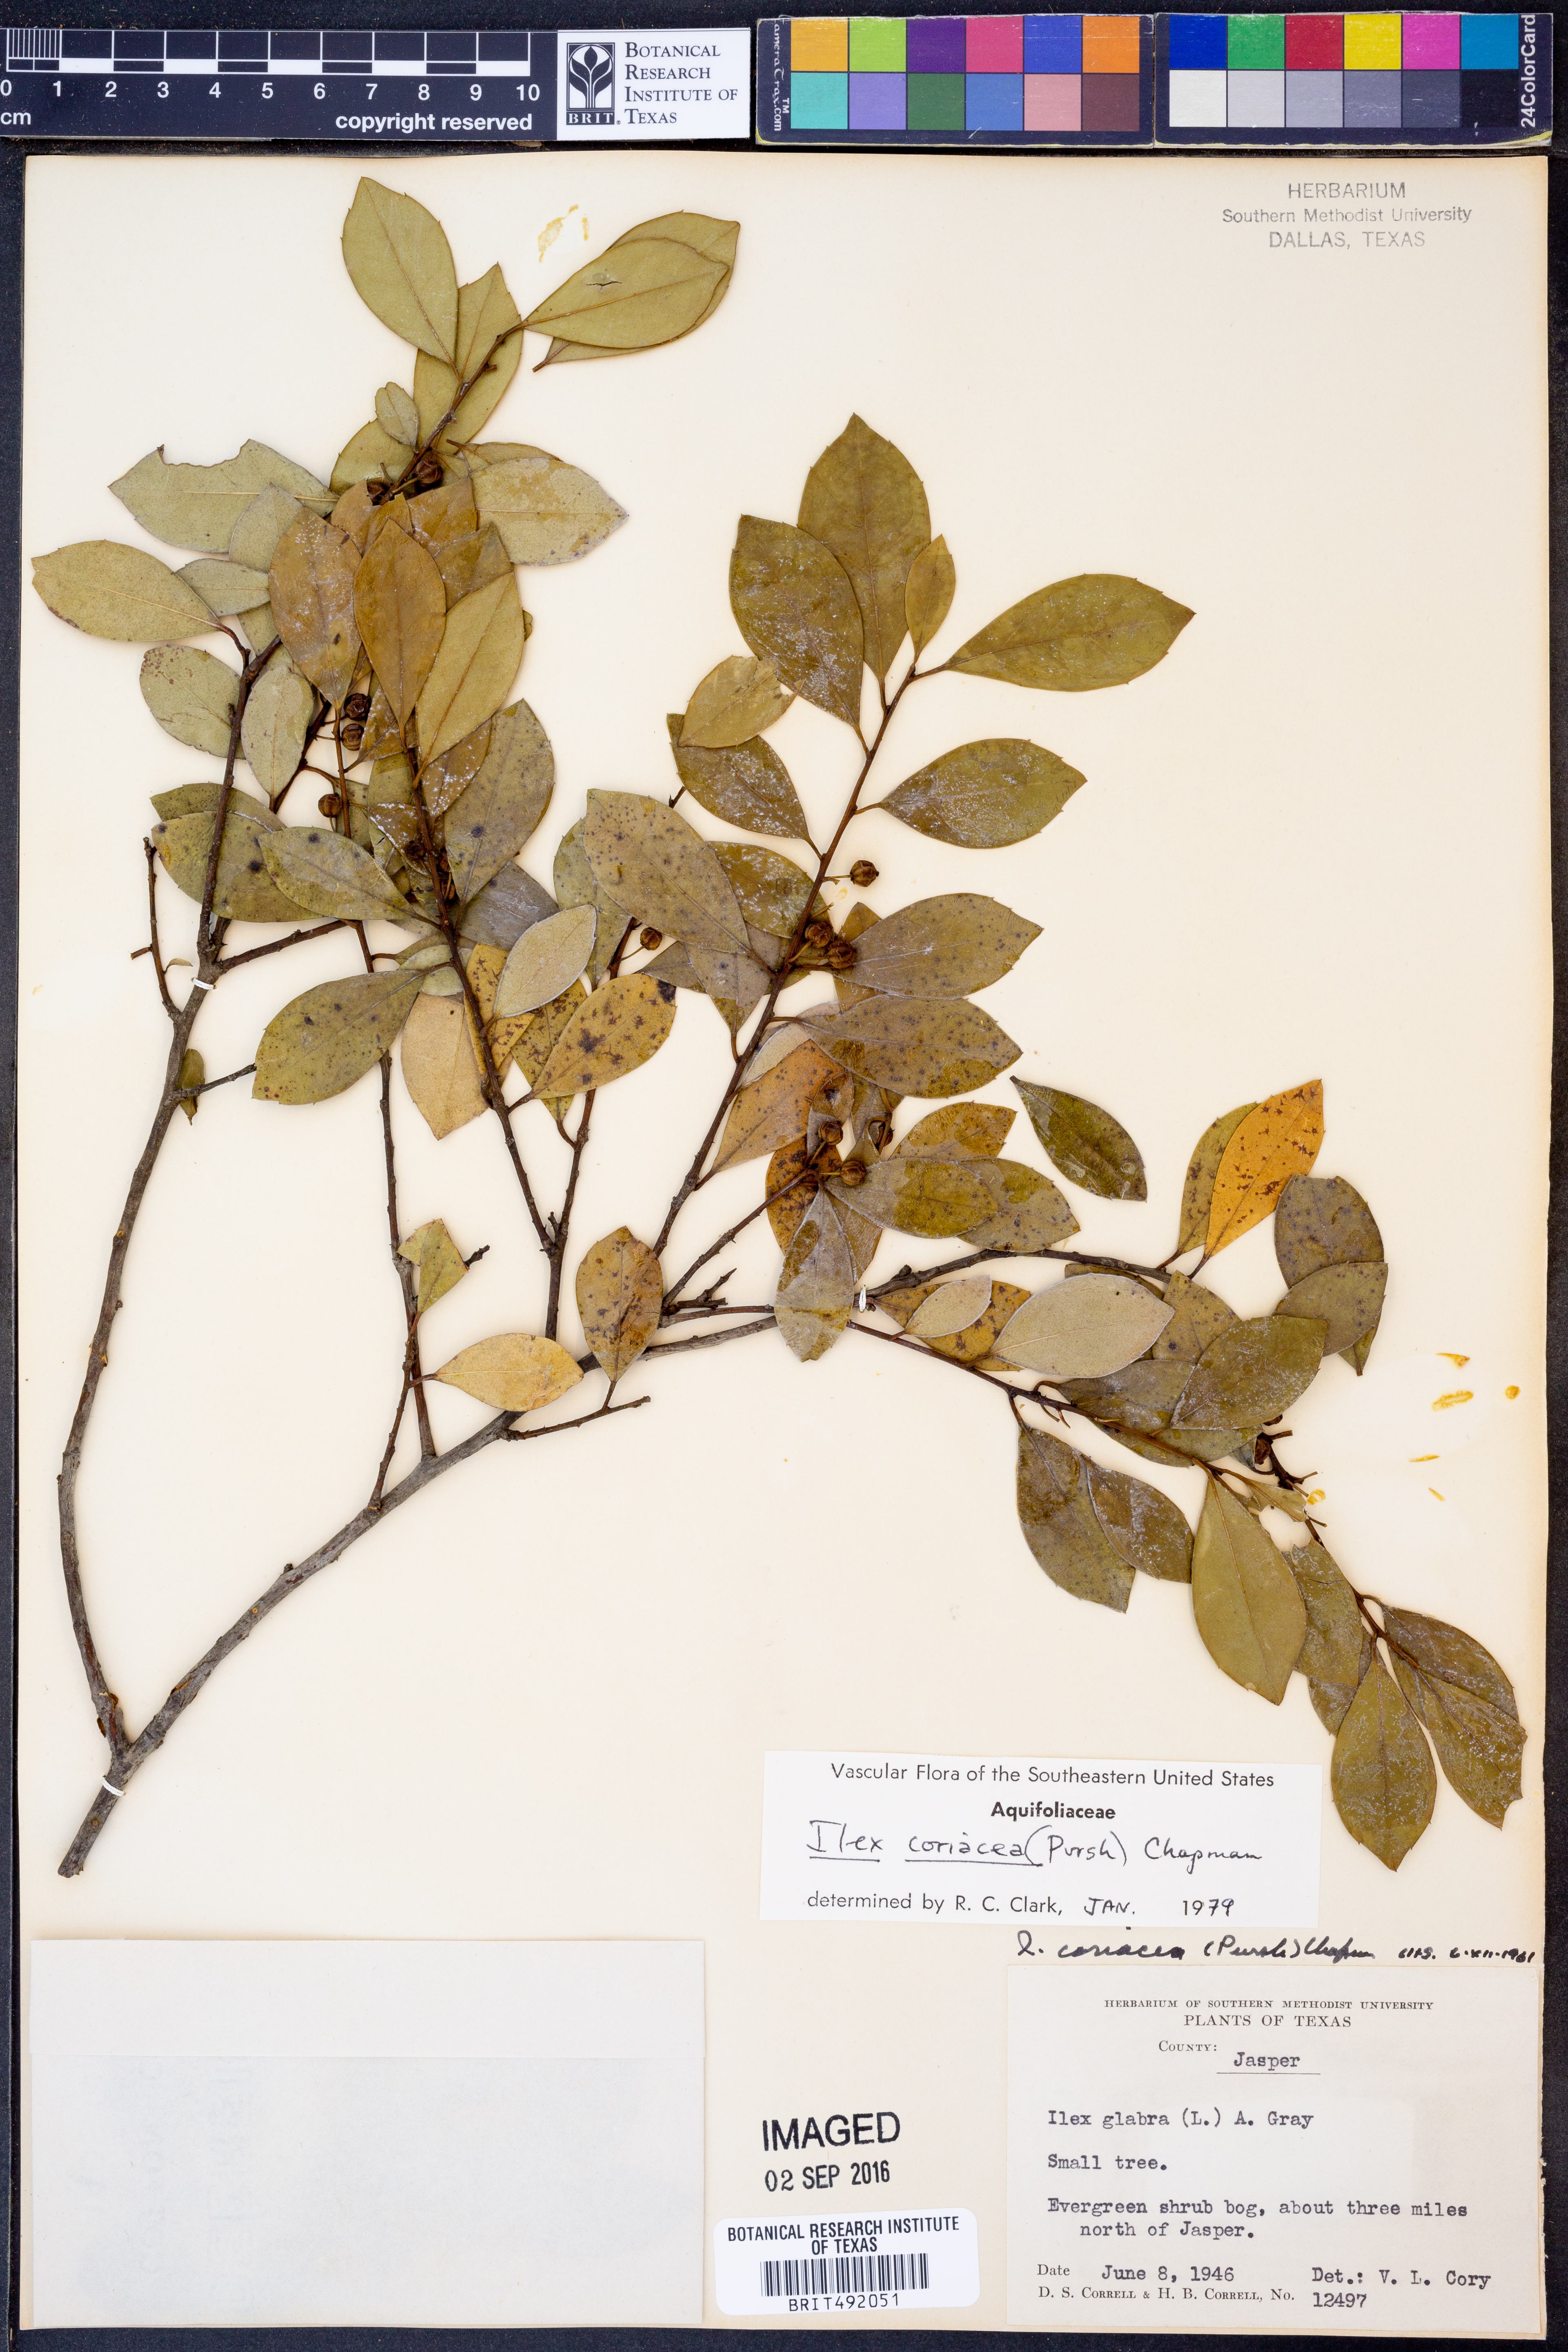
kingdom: Plantae
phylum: Tracheophyta
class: Magnoliopsida
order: Aquifoliales
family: Aquifoliaceae
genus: Ilex
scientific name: Ilex coriacea
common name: Sweet gallberry
